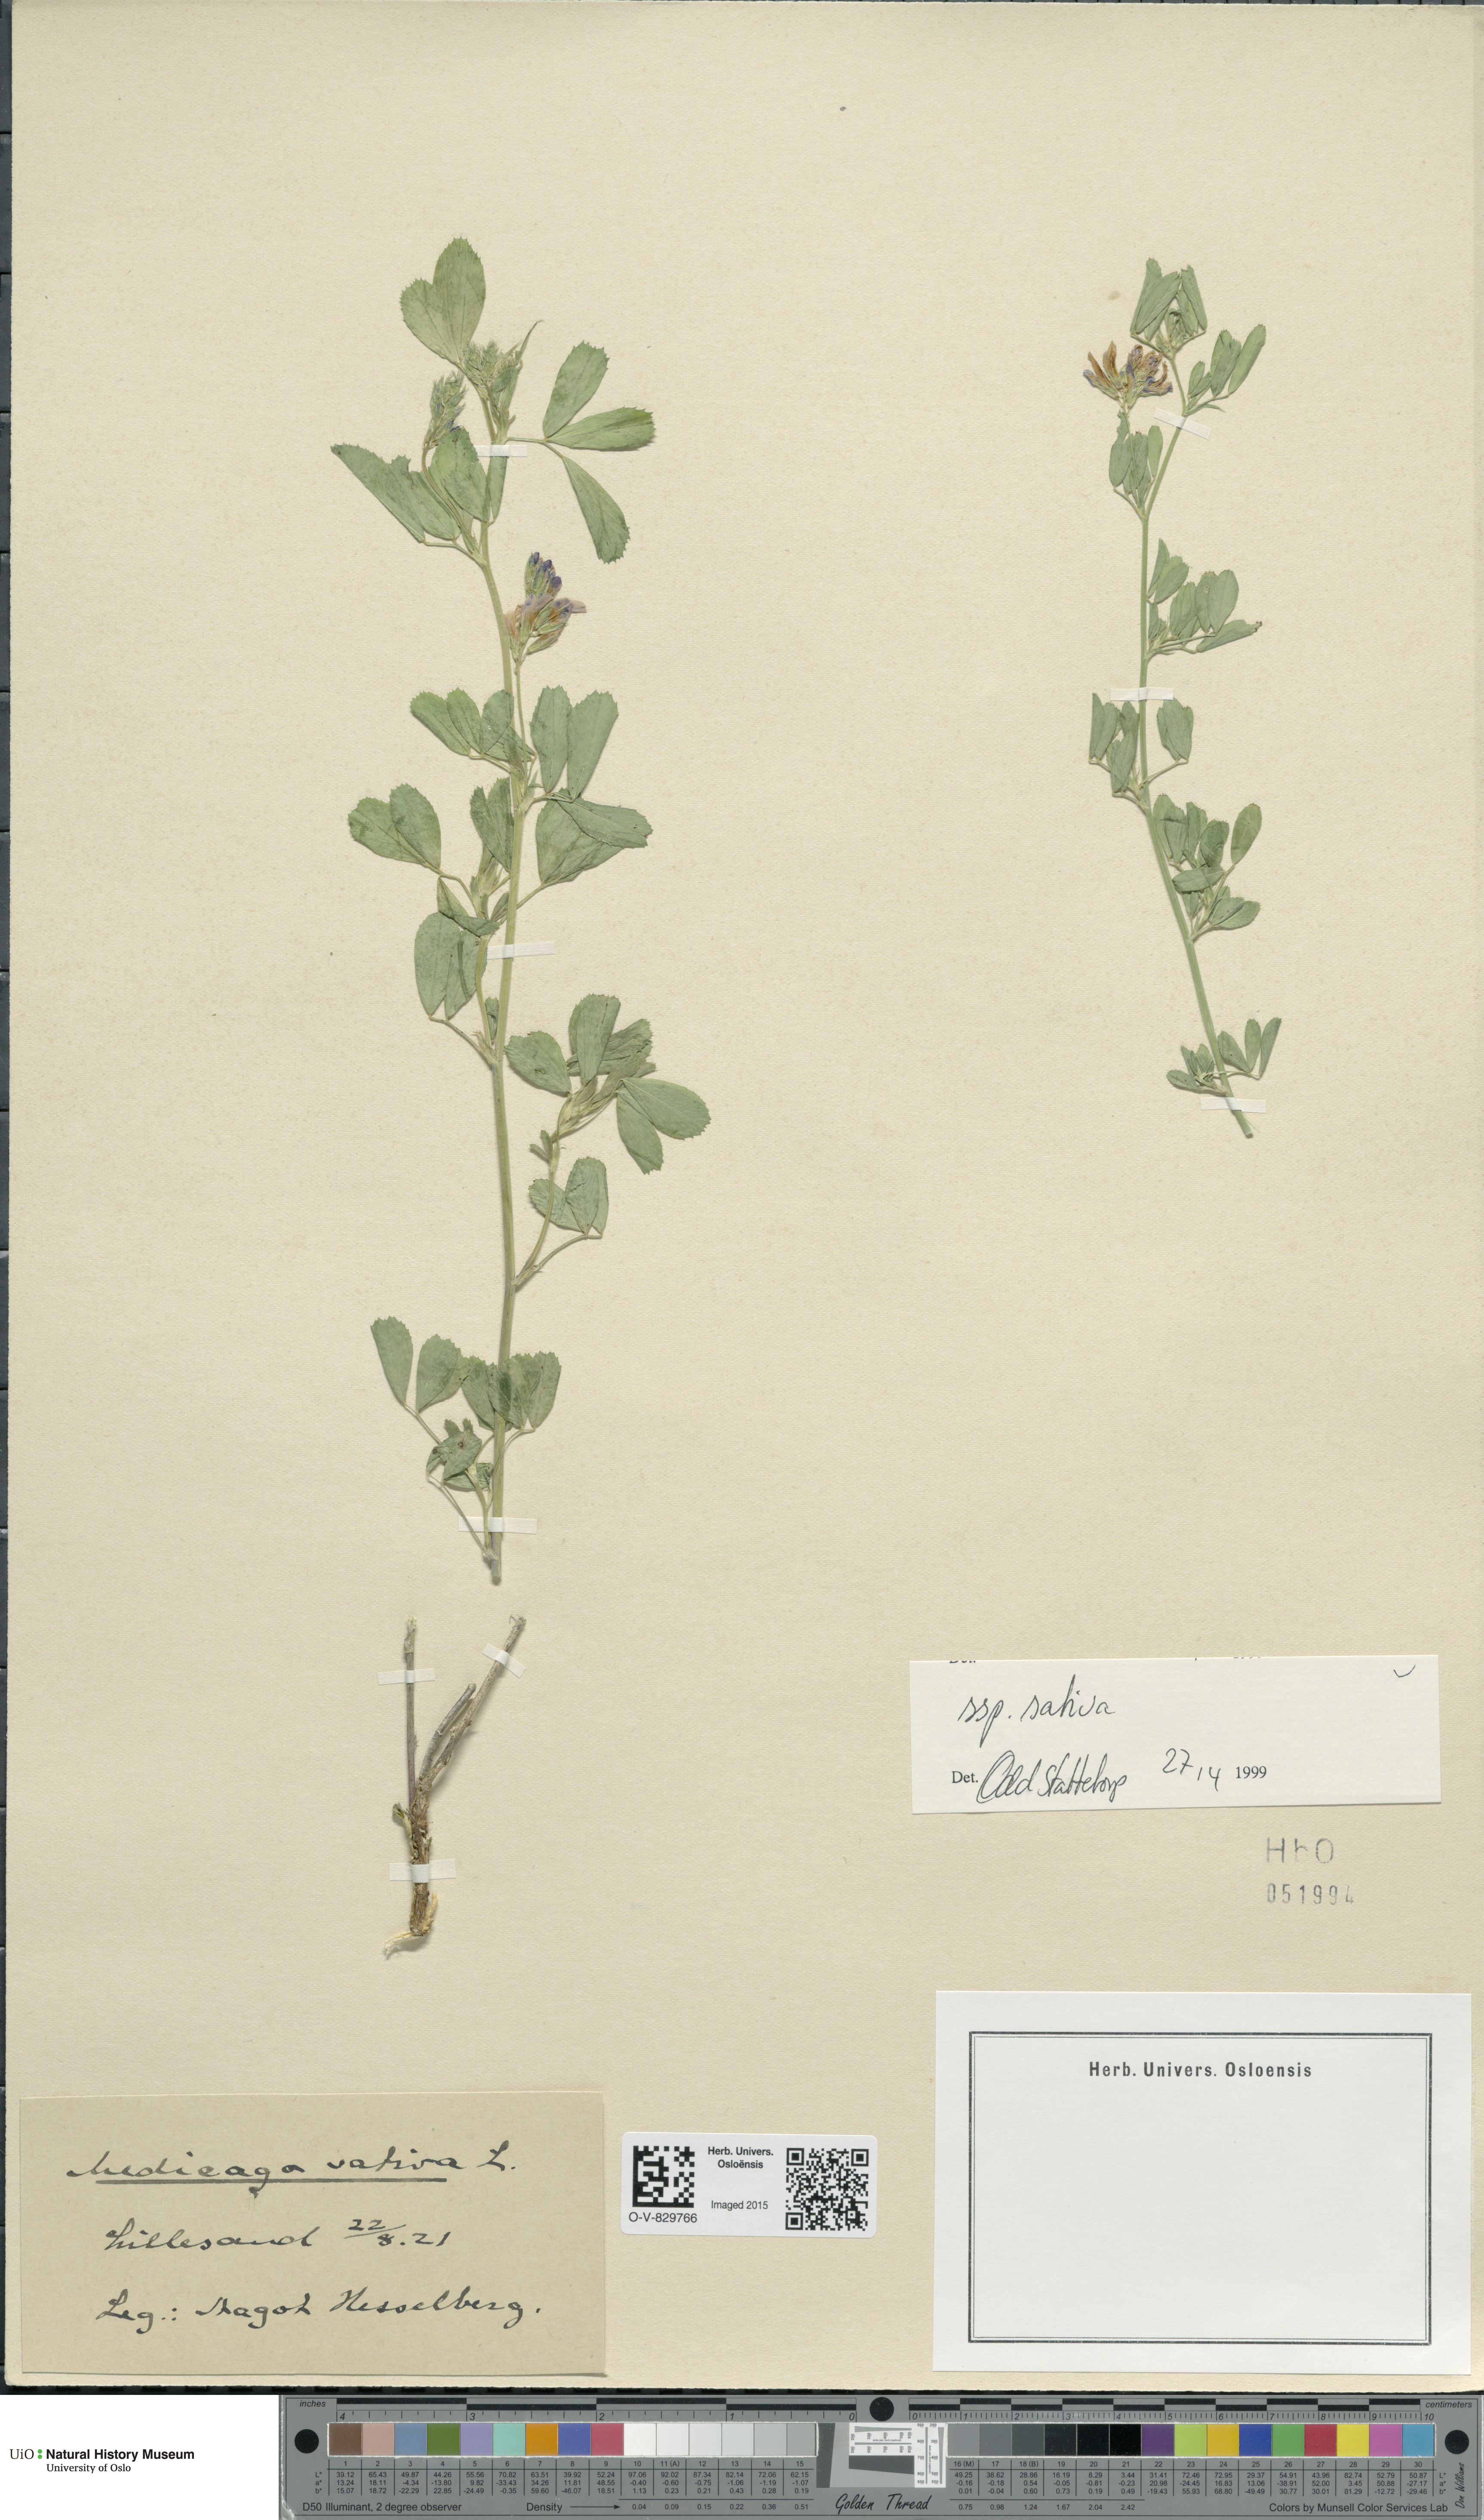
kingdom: Plantae
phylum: Tracheophyta
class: Magnoliopsida
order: Fabales
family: Fabaceae
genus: Medicago
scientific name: Medicago sativa
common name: Alfalfa
